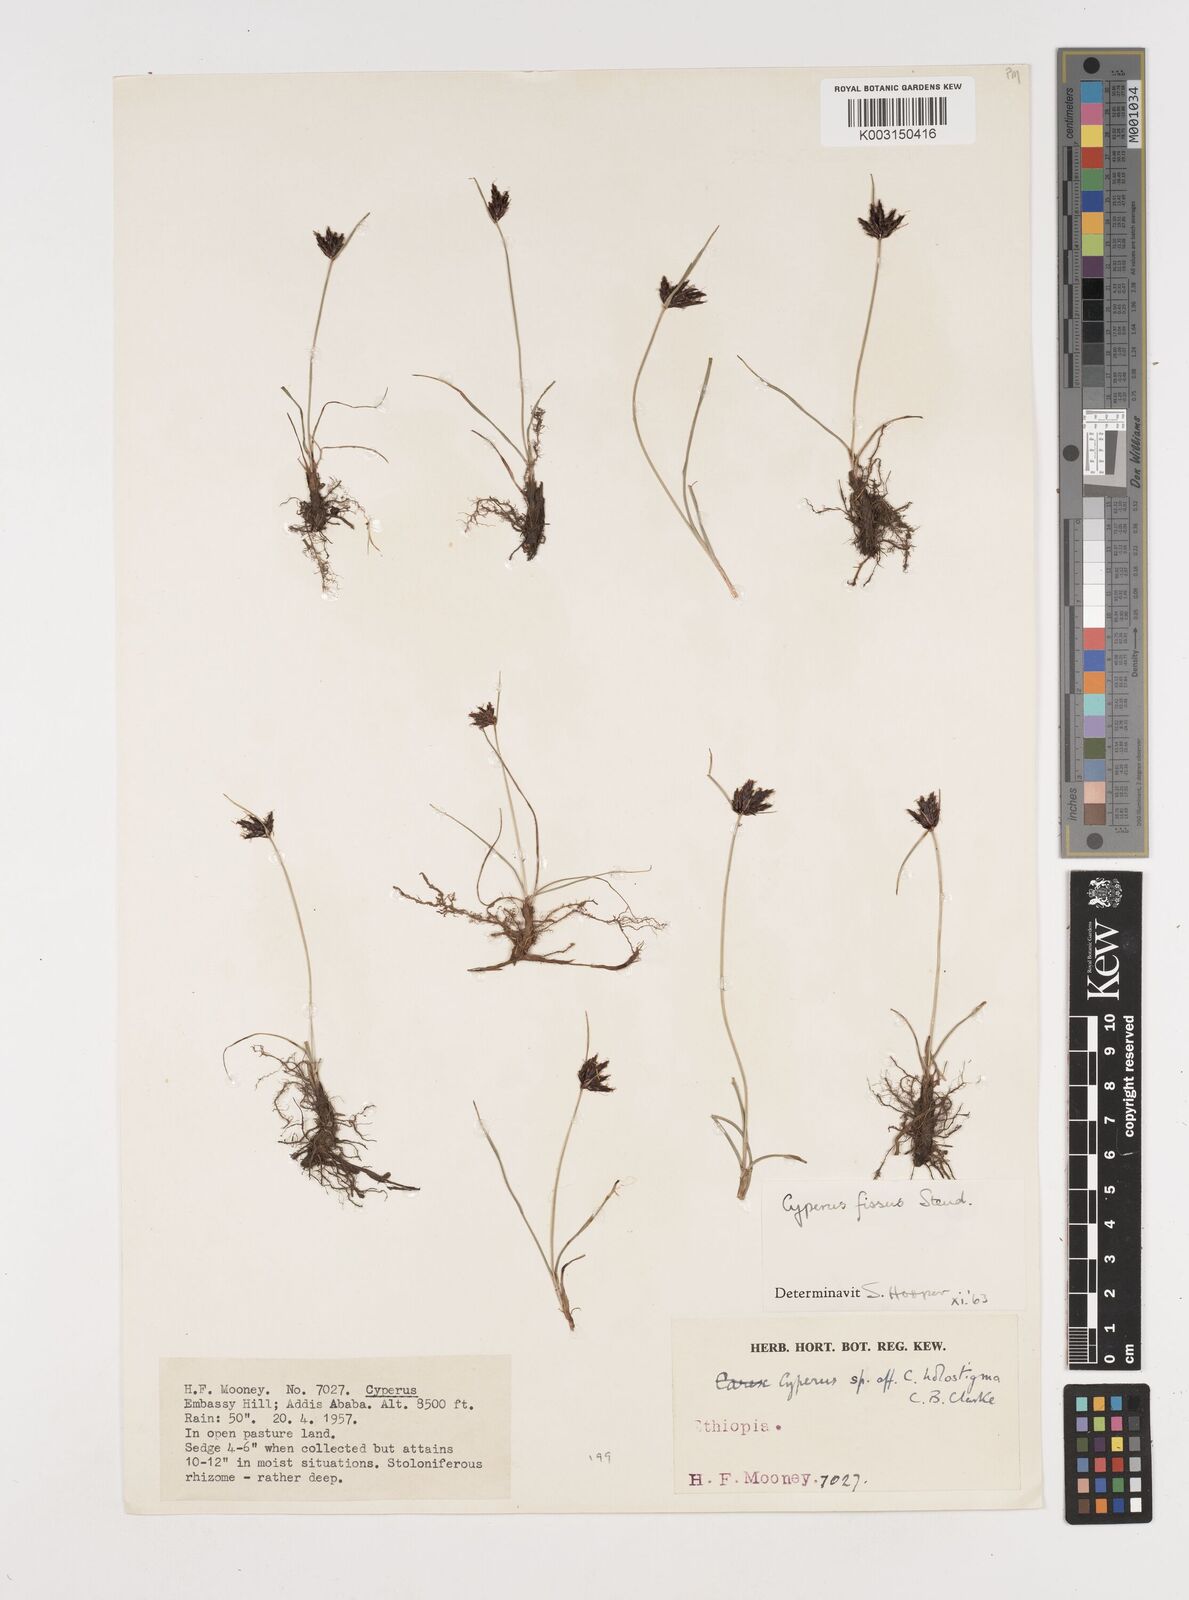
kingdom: Plantae
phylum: Tracheophyta
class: Liliopsida
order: Poales
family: Cyperaceae
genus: Cyperus
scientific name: Cyperus fissus
